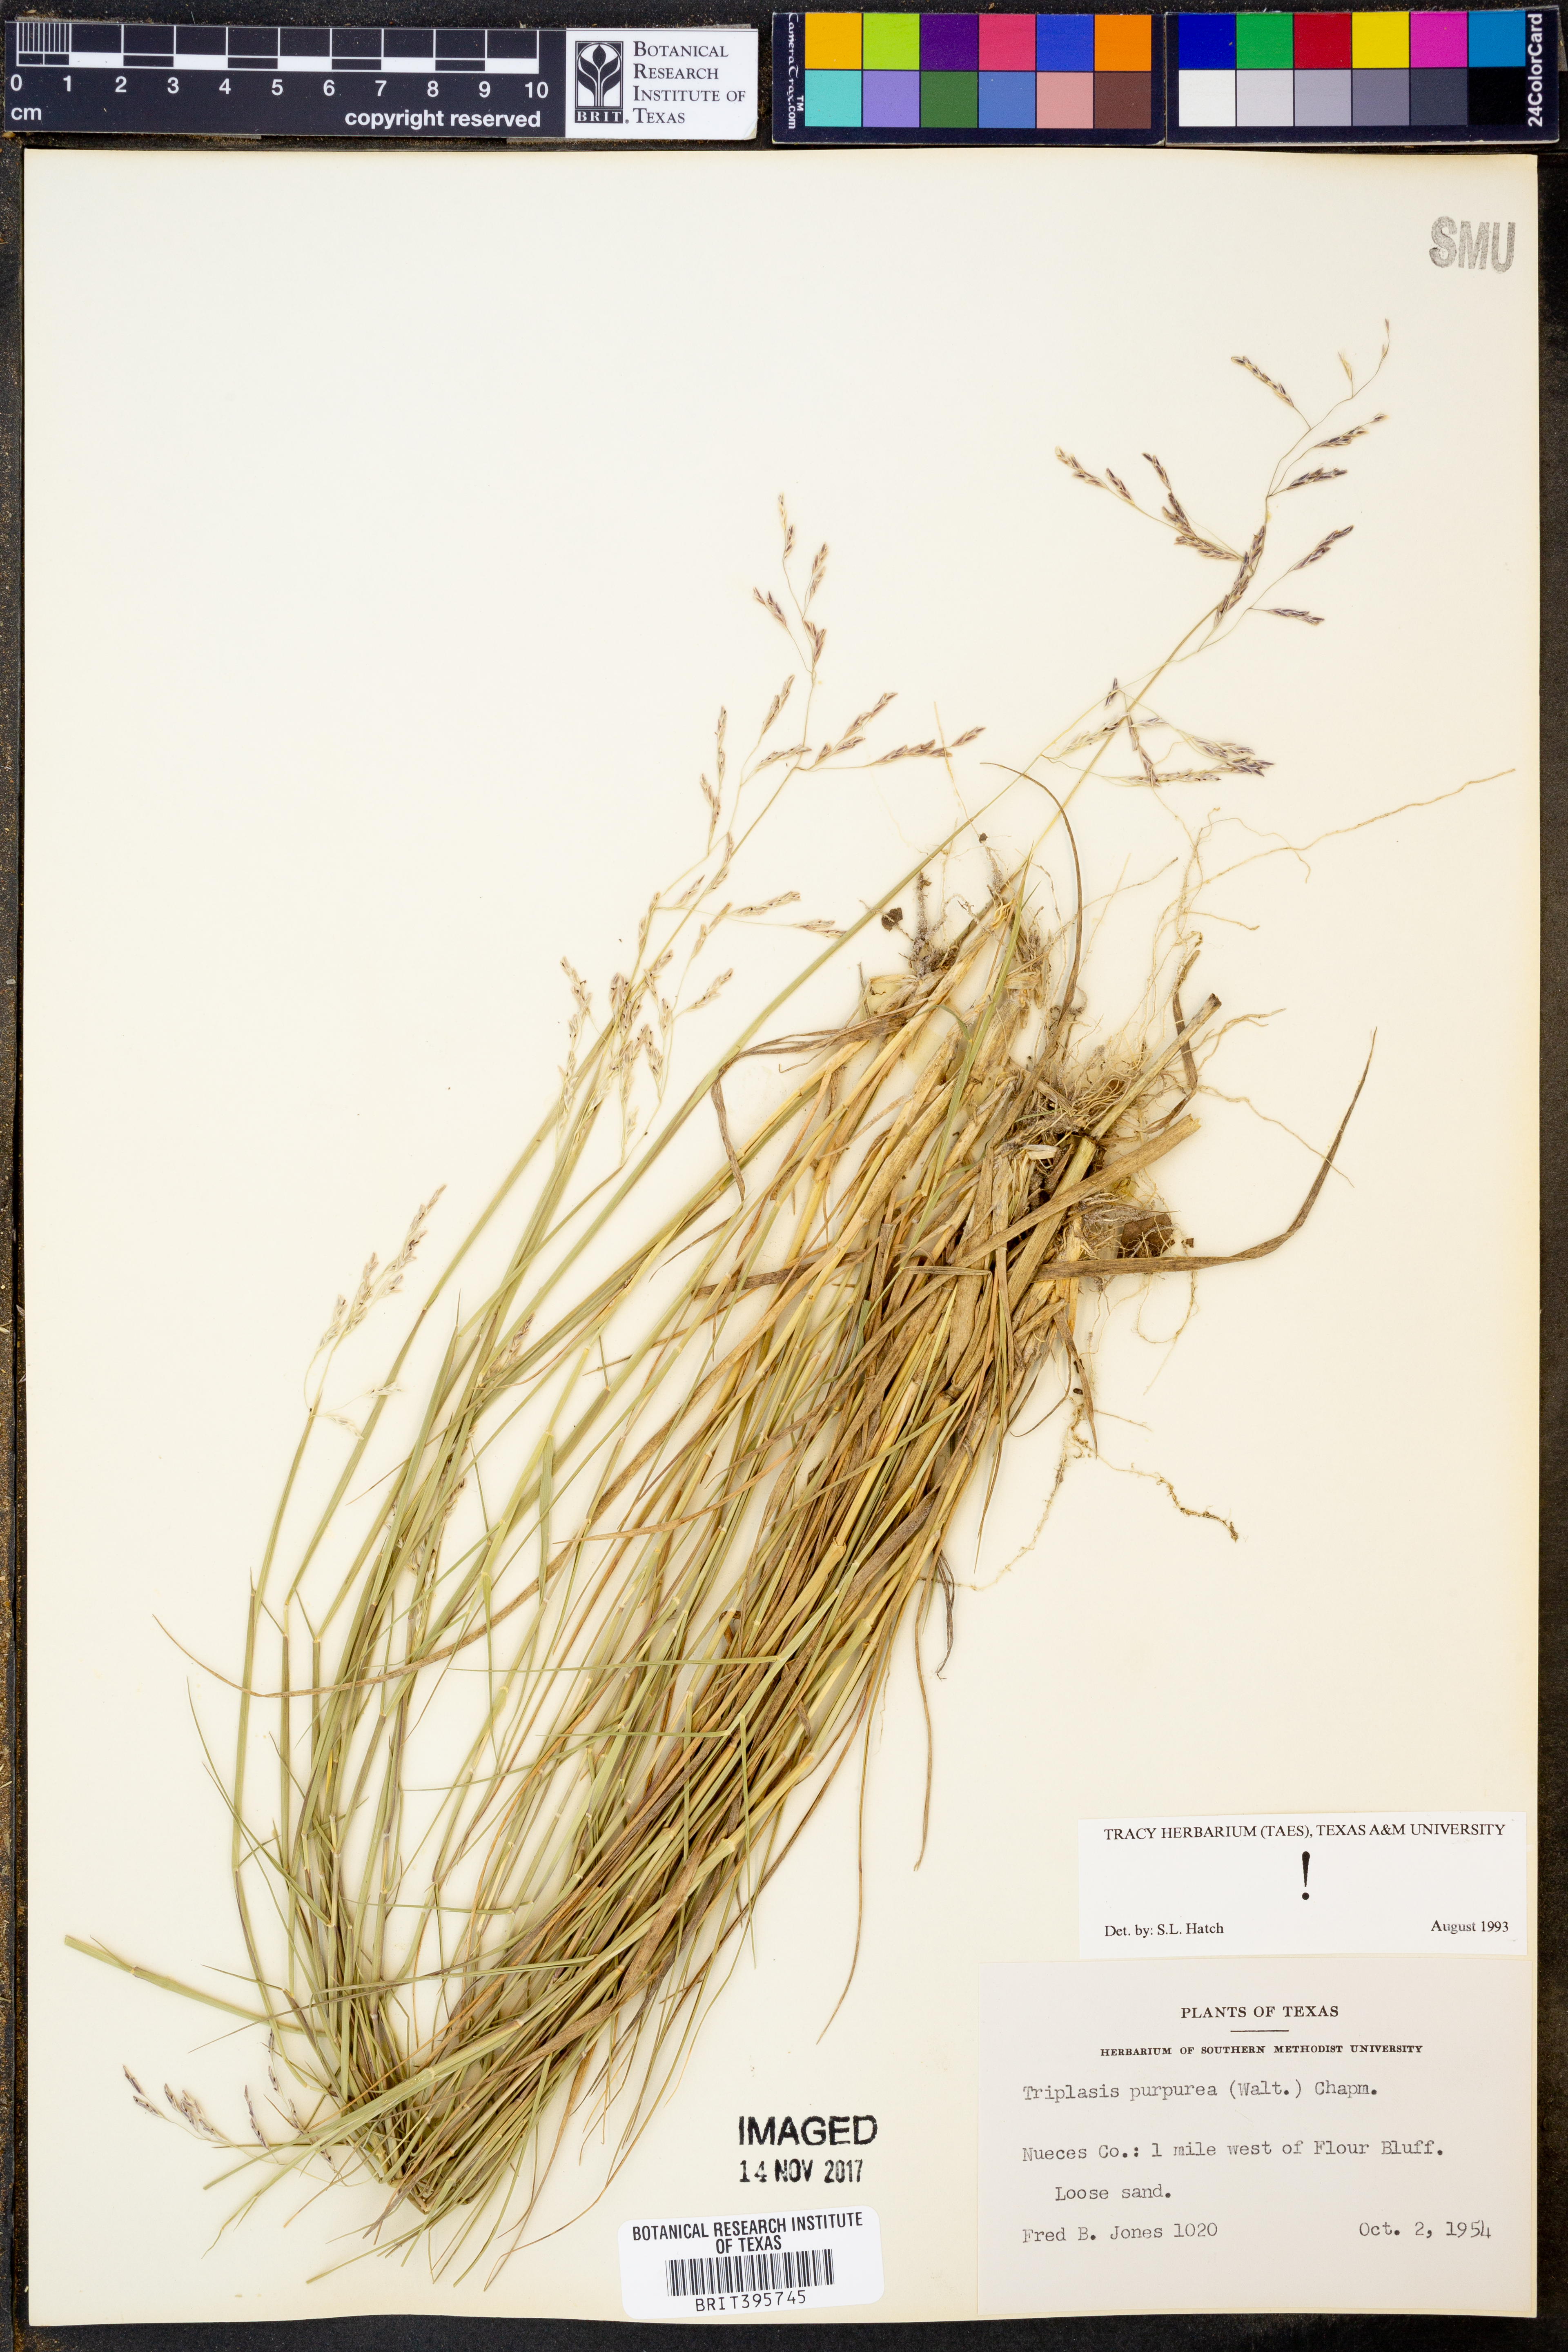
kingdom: Plantae
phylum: Tracheophyta
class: Liliopsida
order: Poales
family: Poaceae
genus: Triplasis
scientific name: Triplasis purpurea
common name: Purple sand grass
